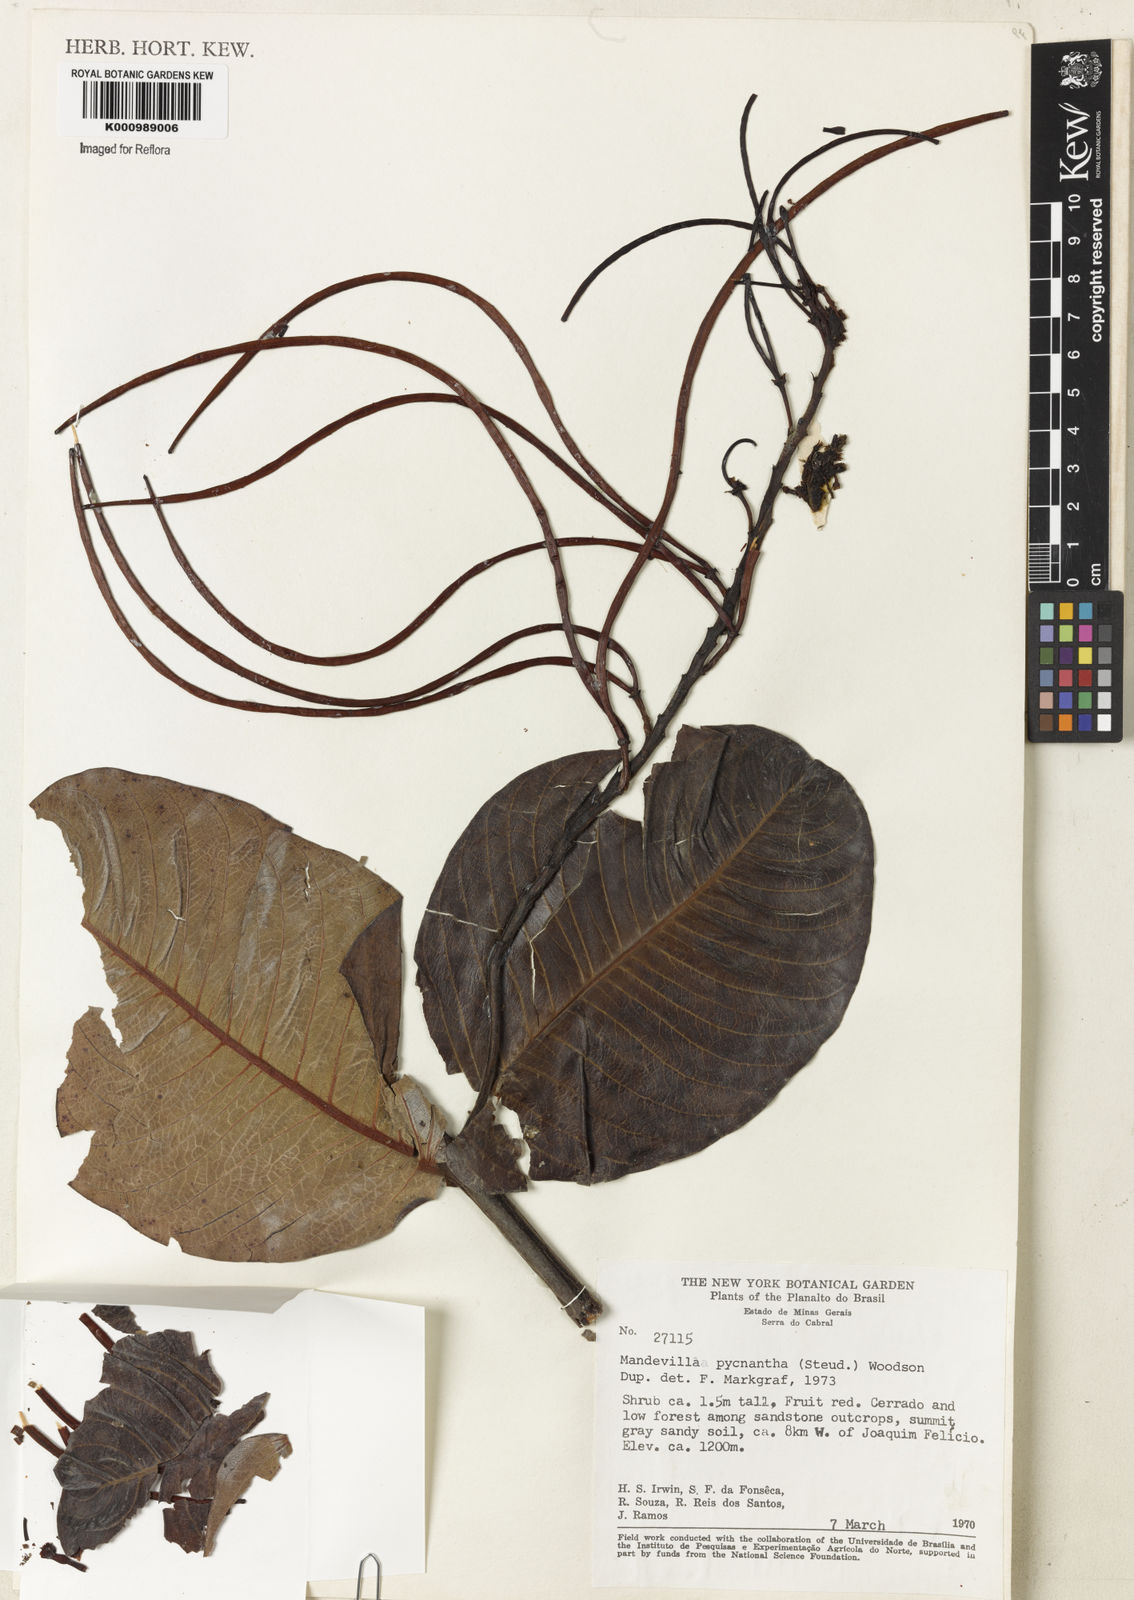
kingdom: Plantae
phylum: Tracheophyta
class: Magnoliopsida
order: Gentianales
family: Apocynaceae
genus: Mandevilla
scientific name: Mandevilla pycnantha
